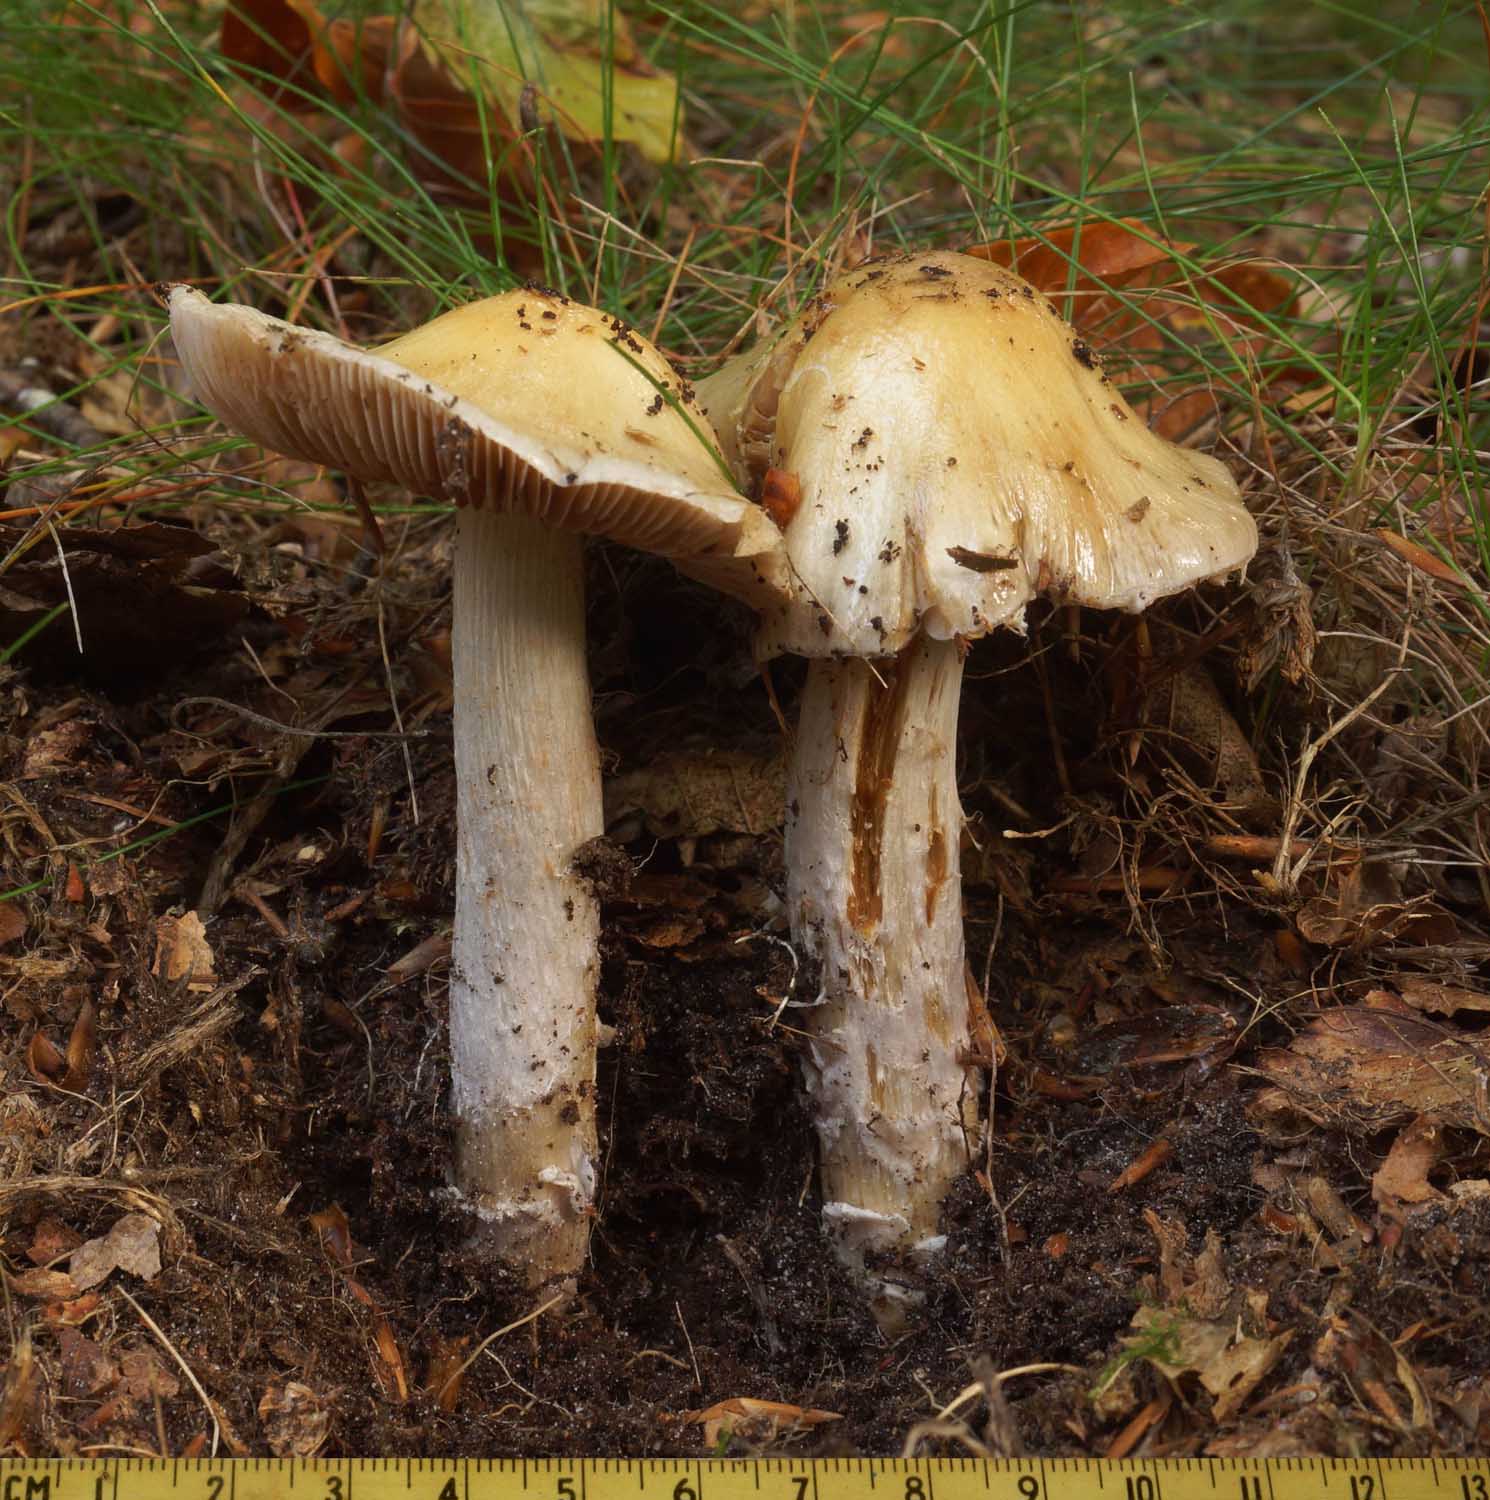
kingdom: Fungi
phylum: Basidiomycota
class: Agaricomycetes
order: Agaricales
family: Cortinariaceae
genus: Cortinarius
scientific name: Cortinarius elatior
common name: høj slørhat
